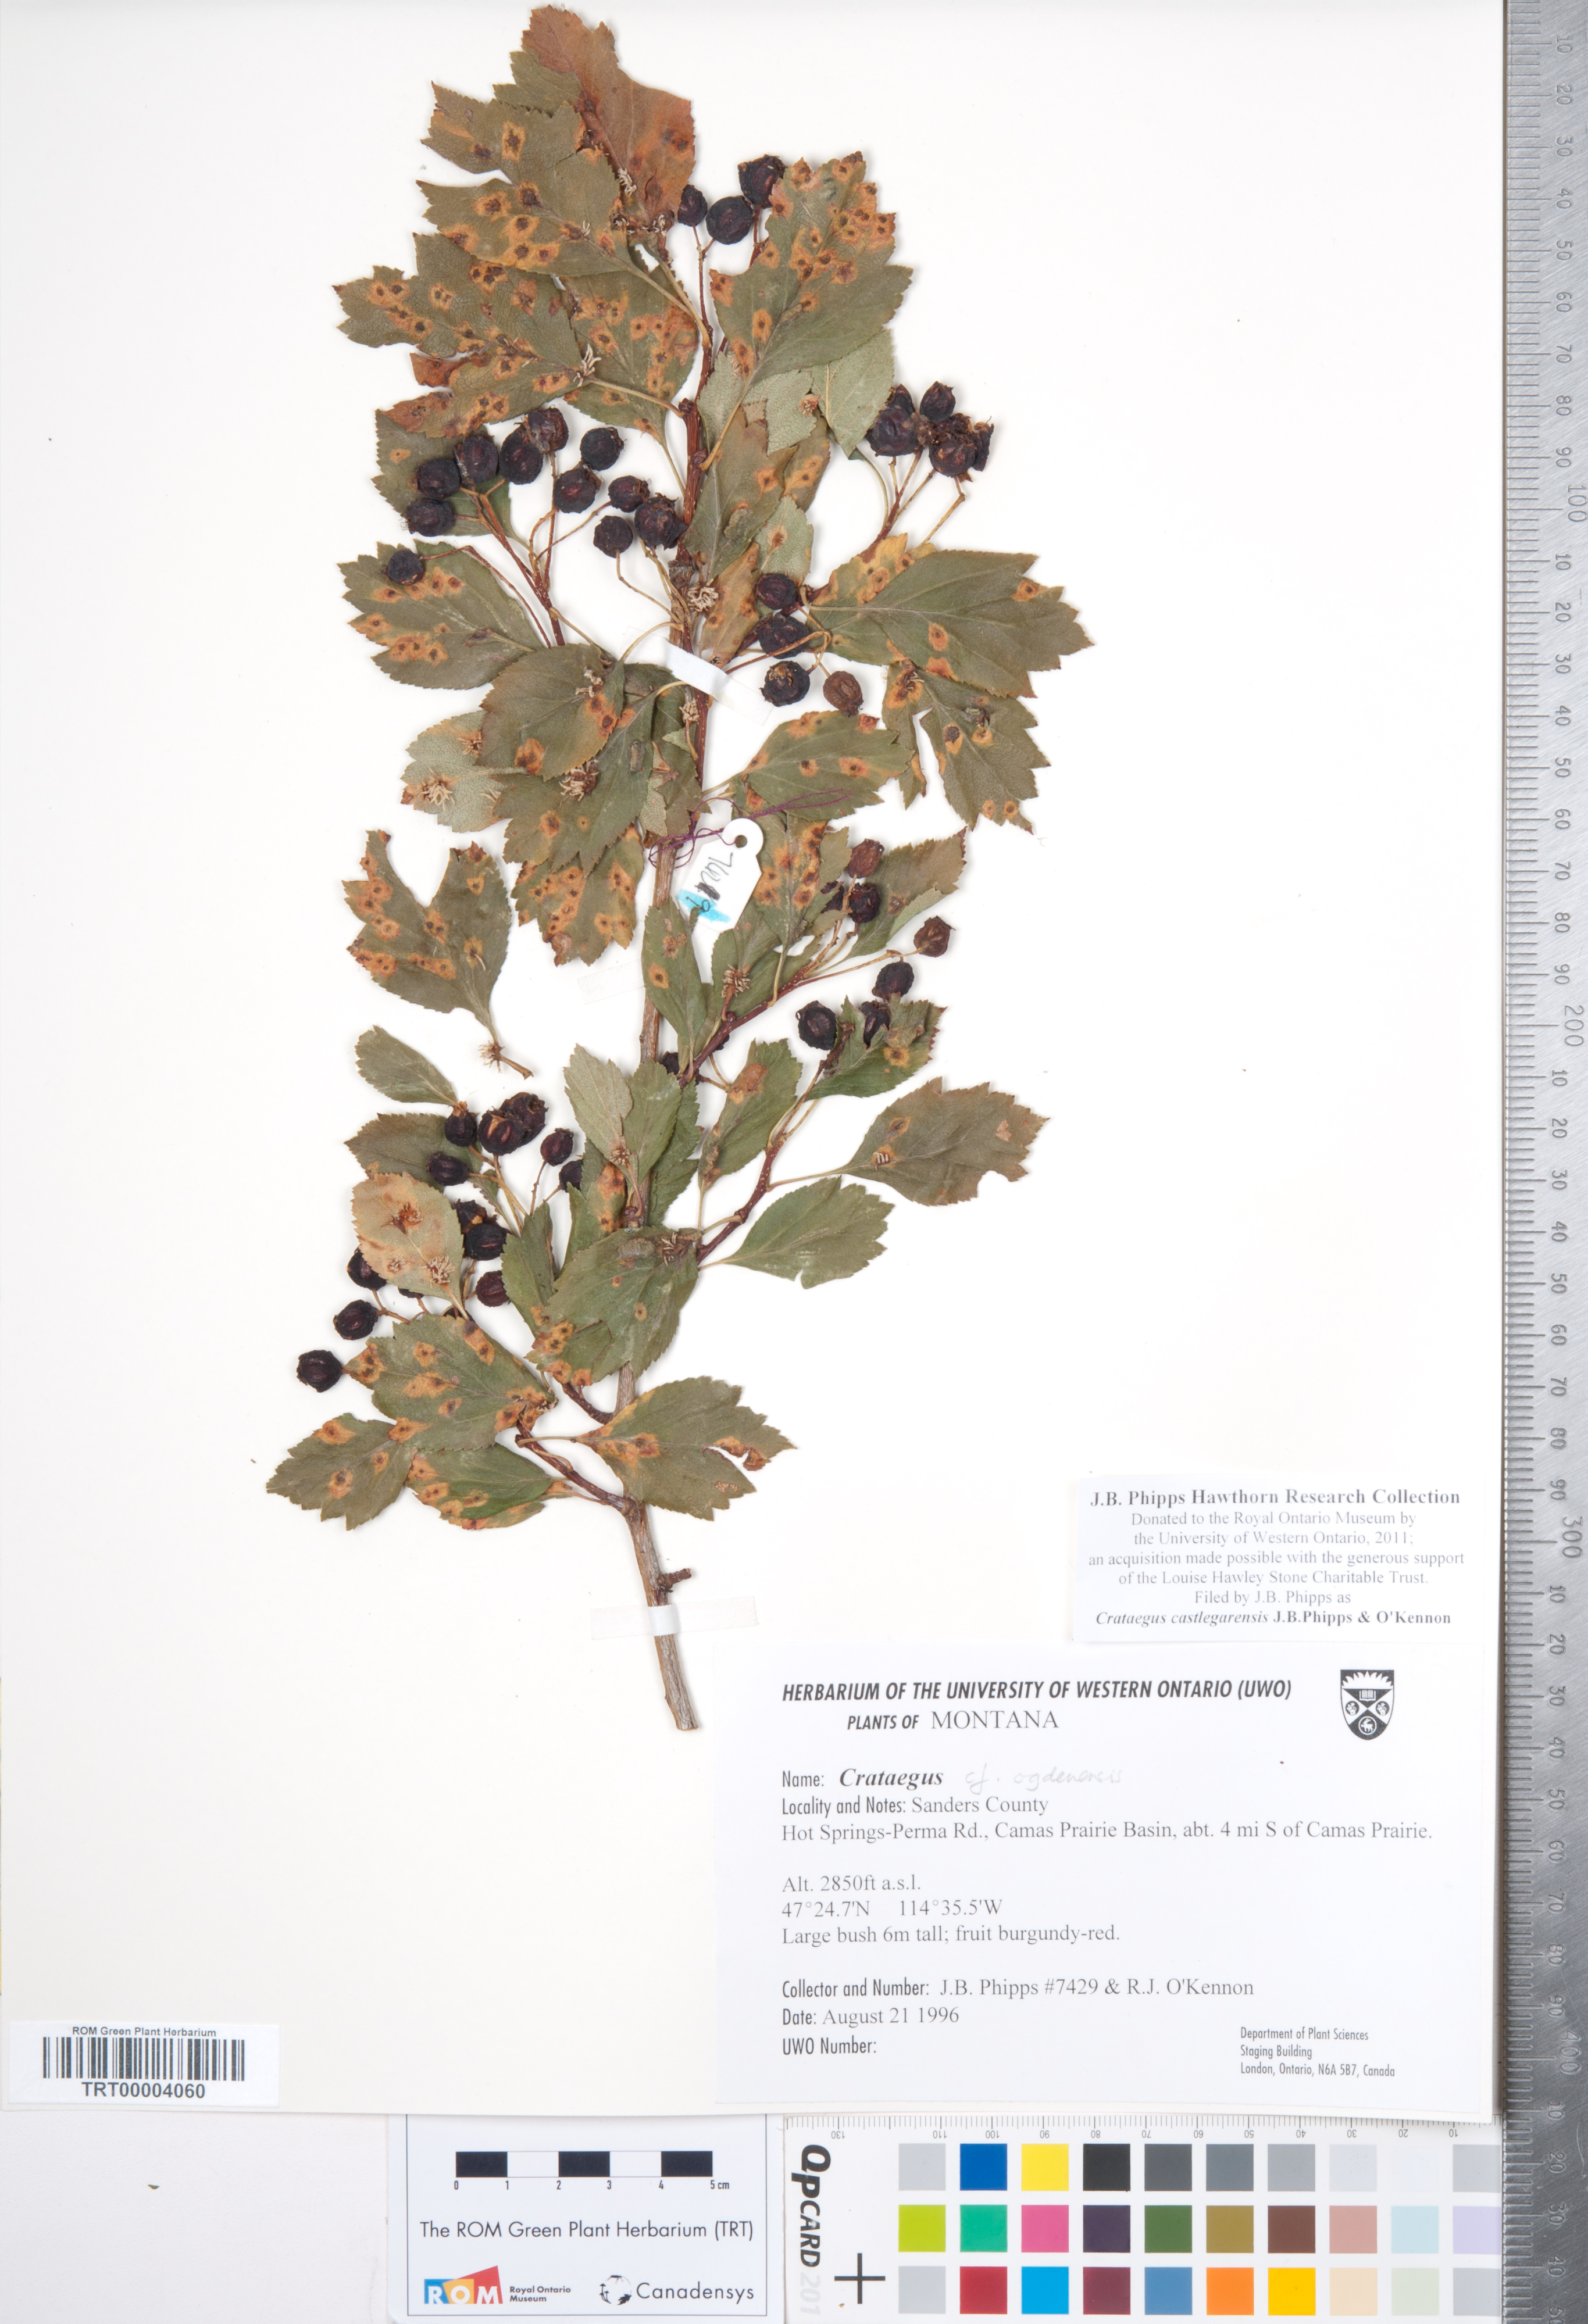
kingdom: Plantae
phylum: Tracheophyta
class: Magnoliopsida
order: Rosales
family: Rosaceae
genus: Crataegus
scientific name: Crataegus castlegarensis
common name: Castlegar hawthorn
